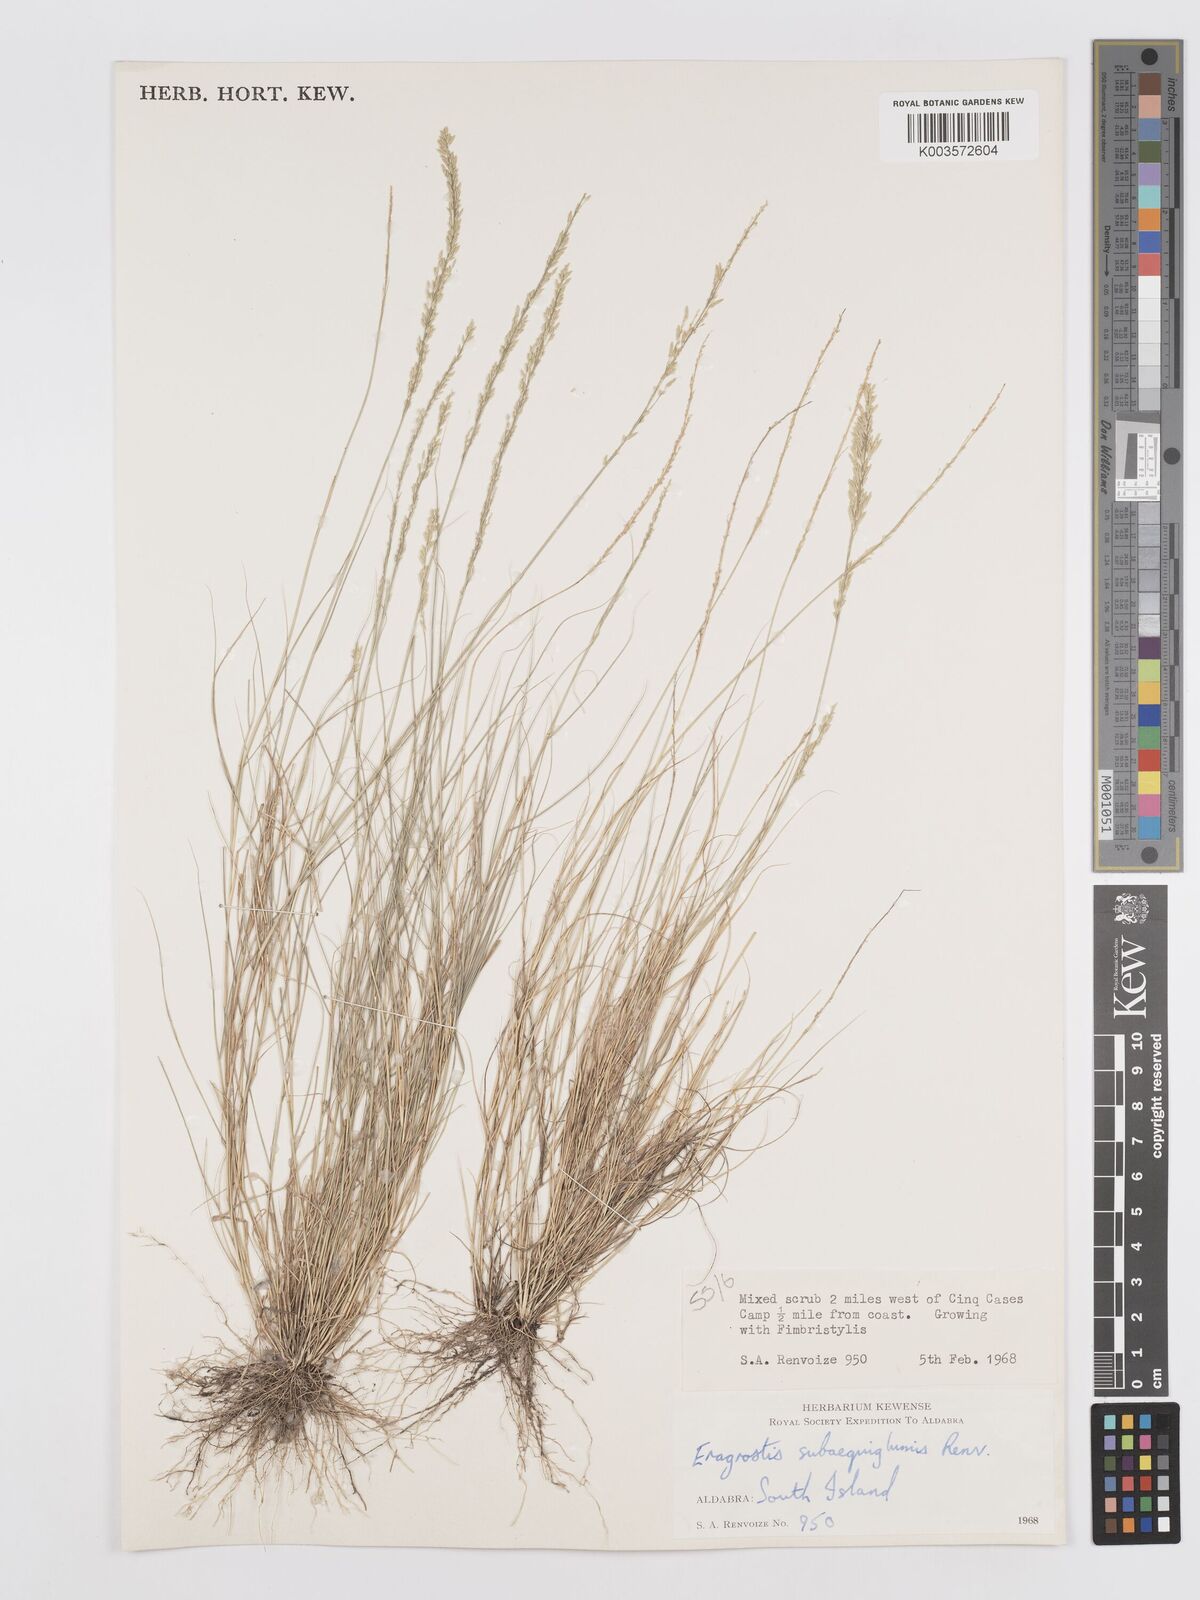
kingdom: Plantae
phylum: Tracheophyta
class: Liliopsida
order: Poales
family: Poaceae
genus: Eragrostis
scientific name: Eragrostis subaequiglumis
